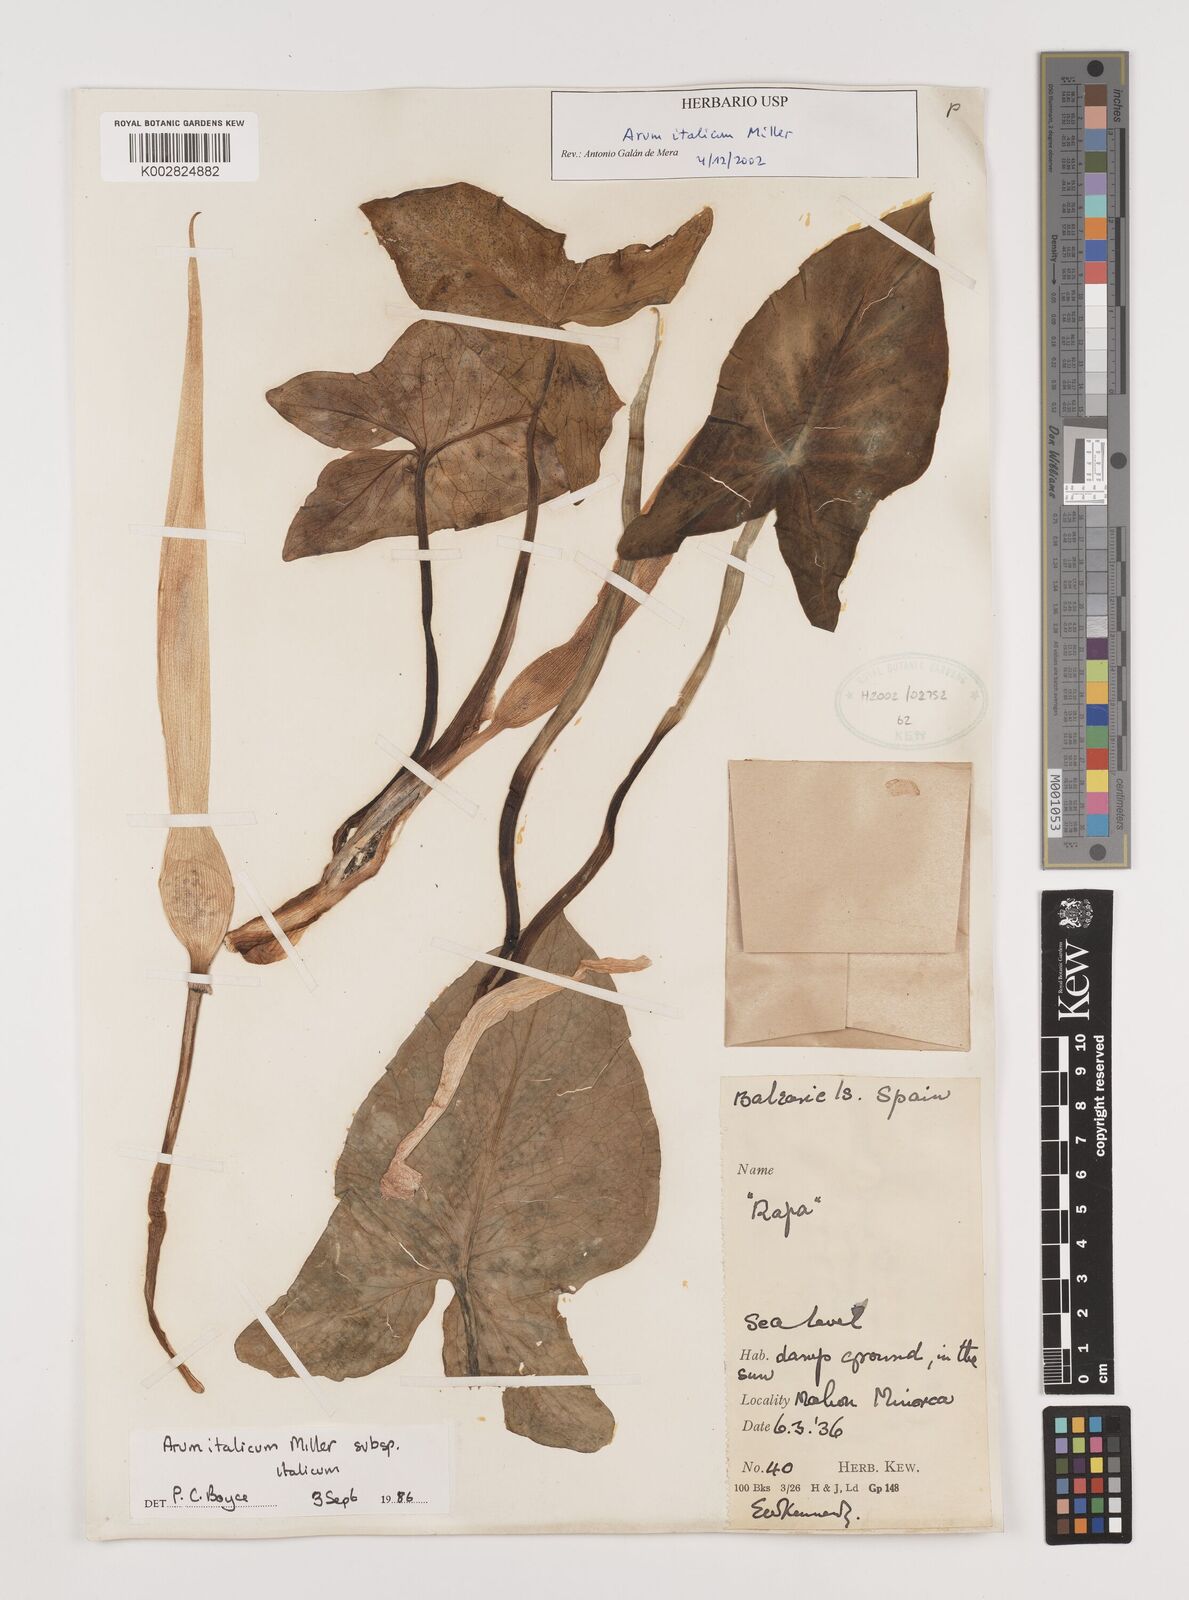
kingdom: Plantae
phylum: Tracheophyta
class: Liliopsida
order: Alismatales
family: Araceae
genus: Arum
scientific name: Arum italicum
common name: Italian lords-and-ladies
